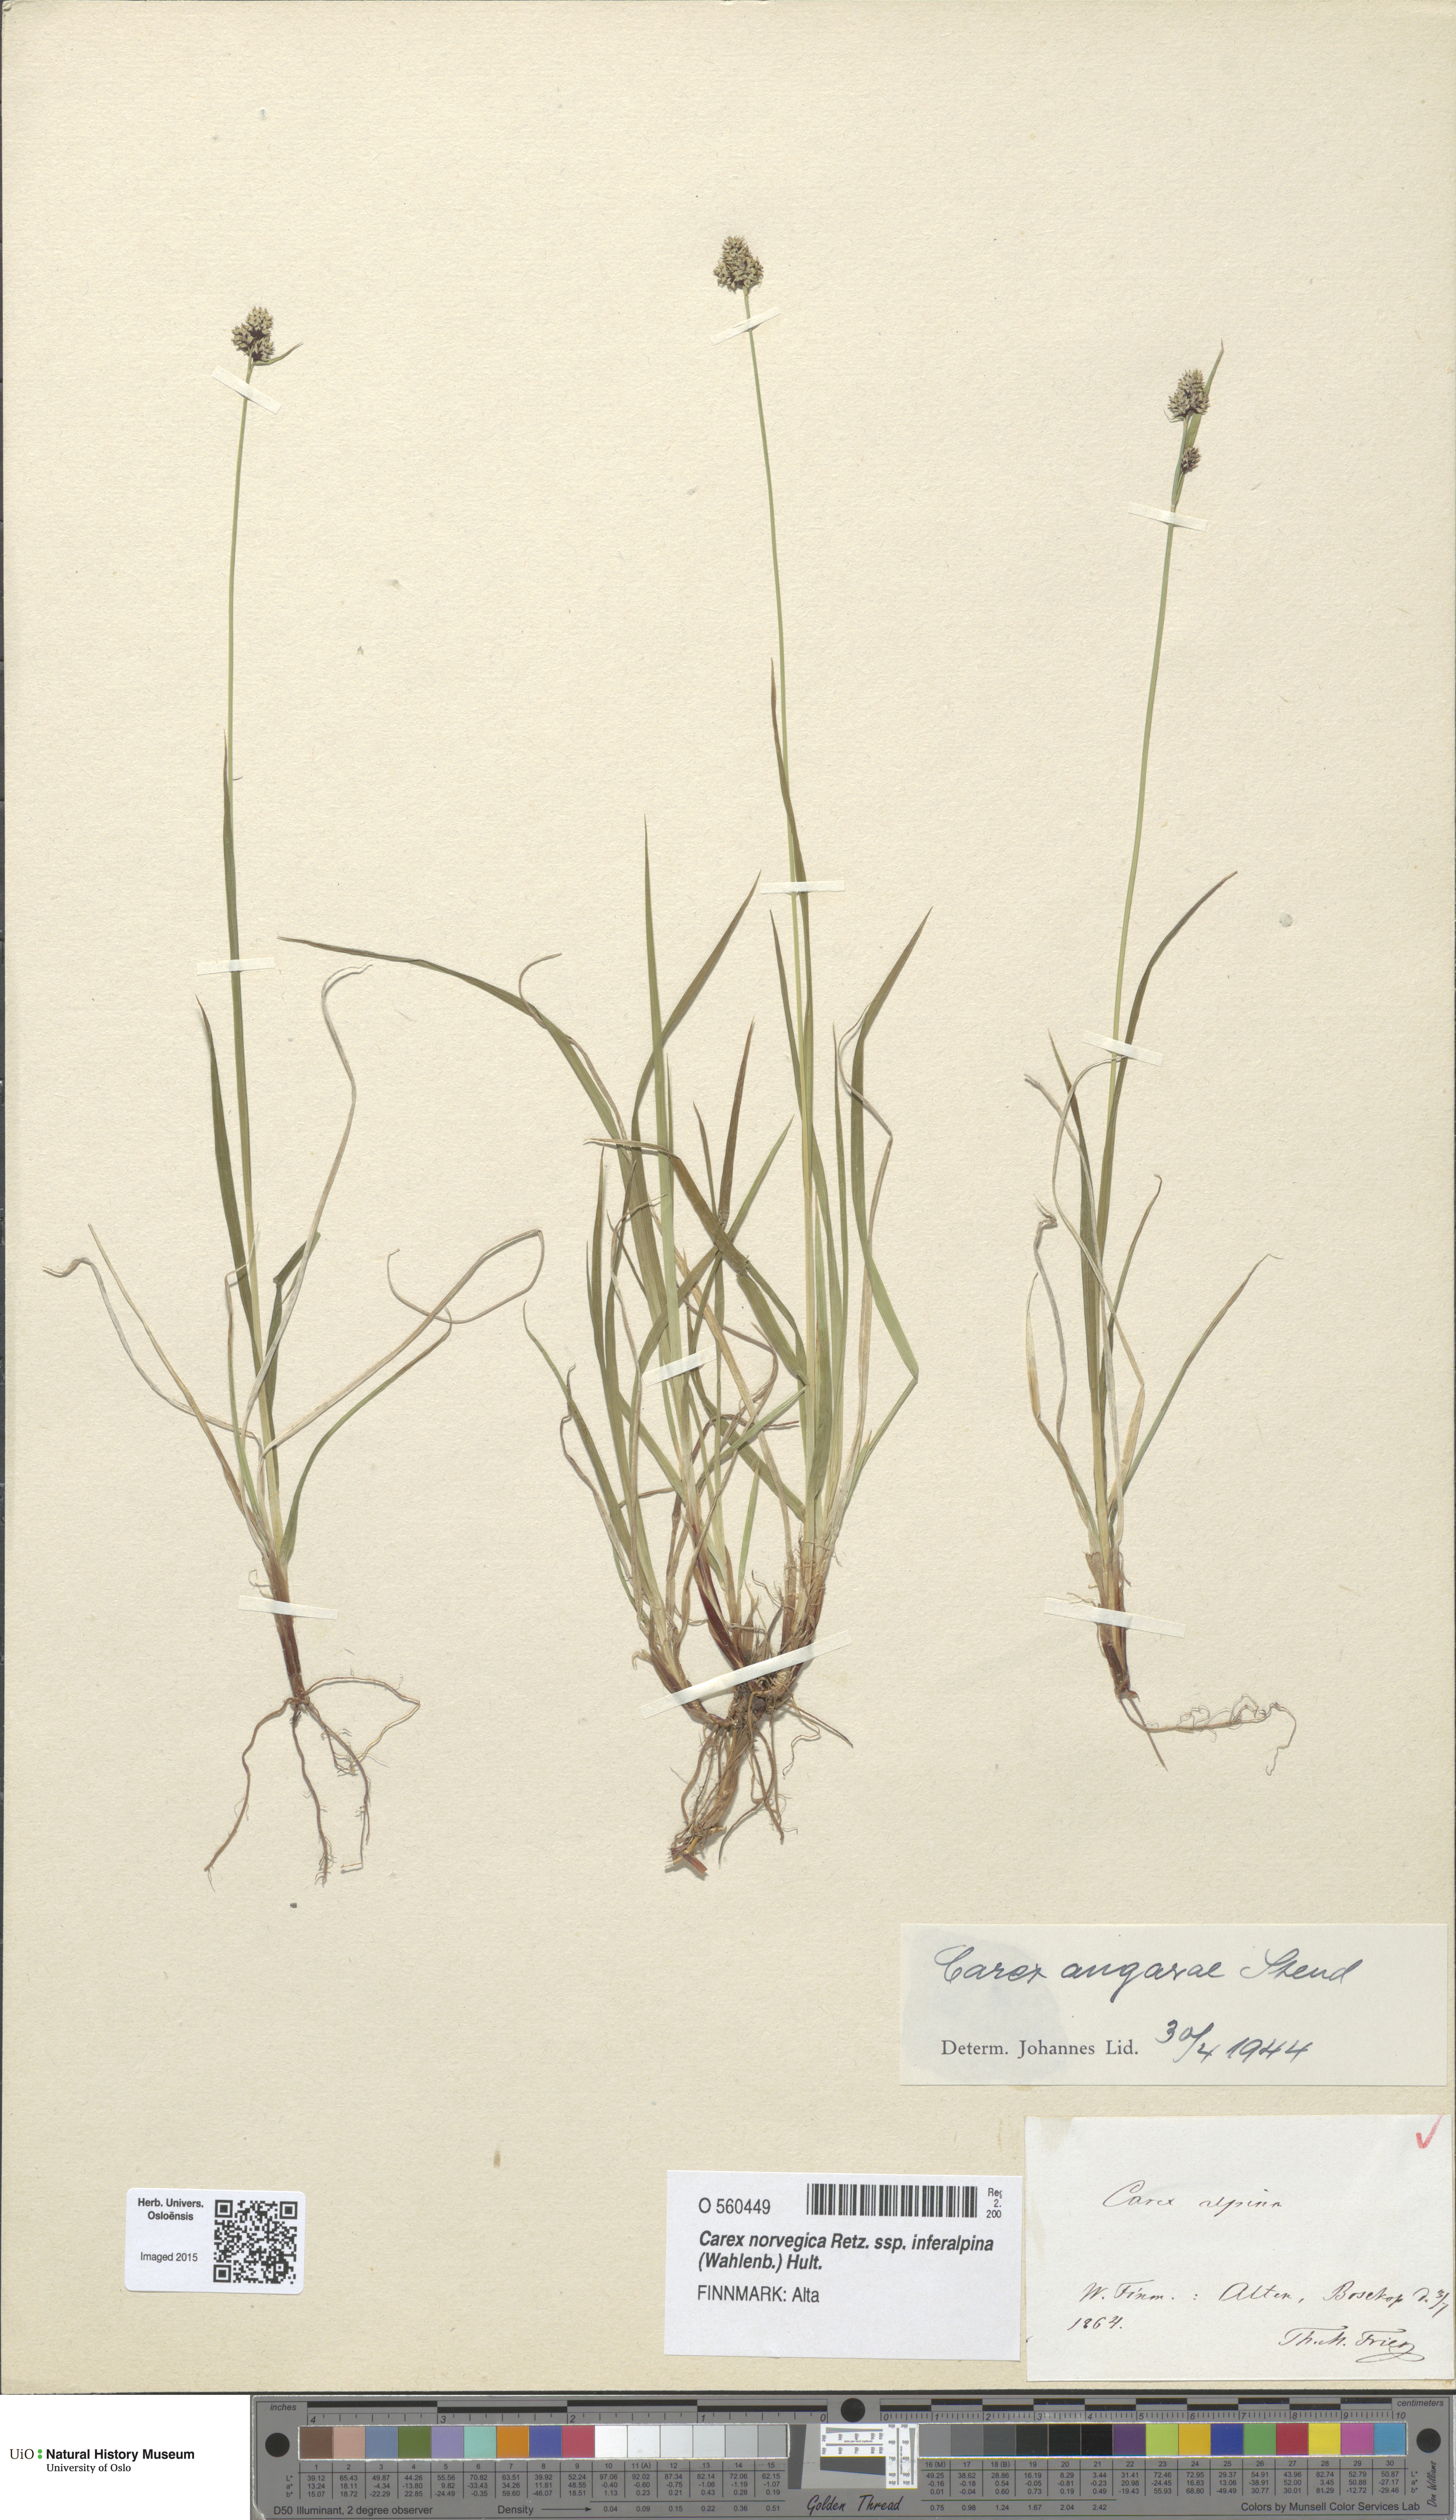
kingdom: Plantae
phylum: Tracheophyta
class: Liliopsida
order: Poales
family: Cyperaceae
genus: Carex
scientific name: Carex media
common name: Alpine sedge
